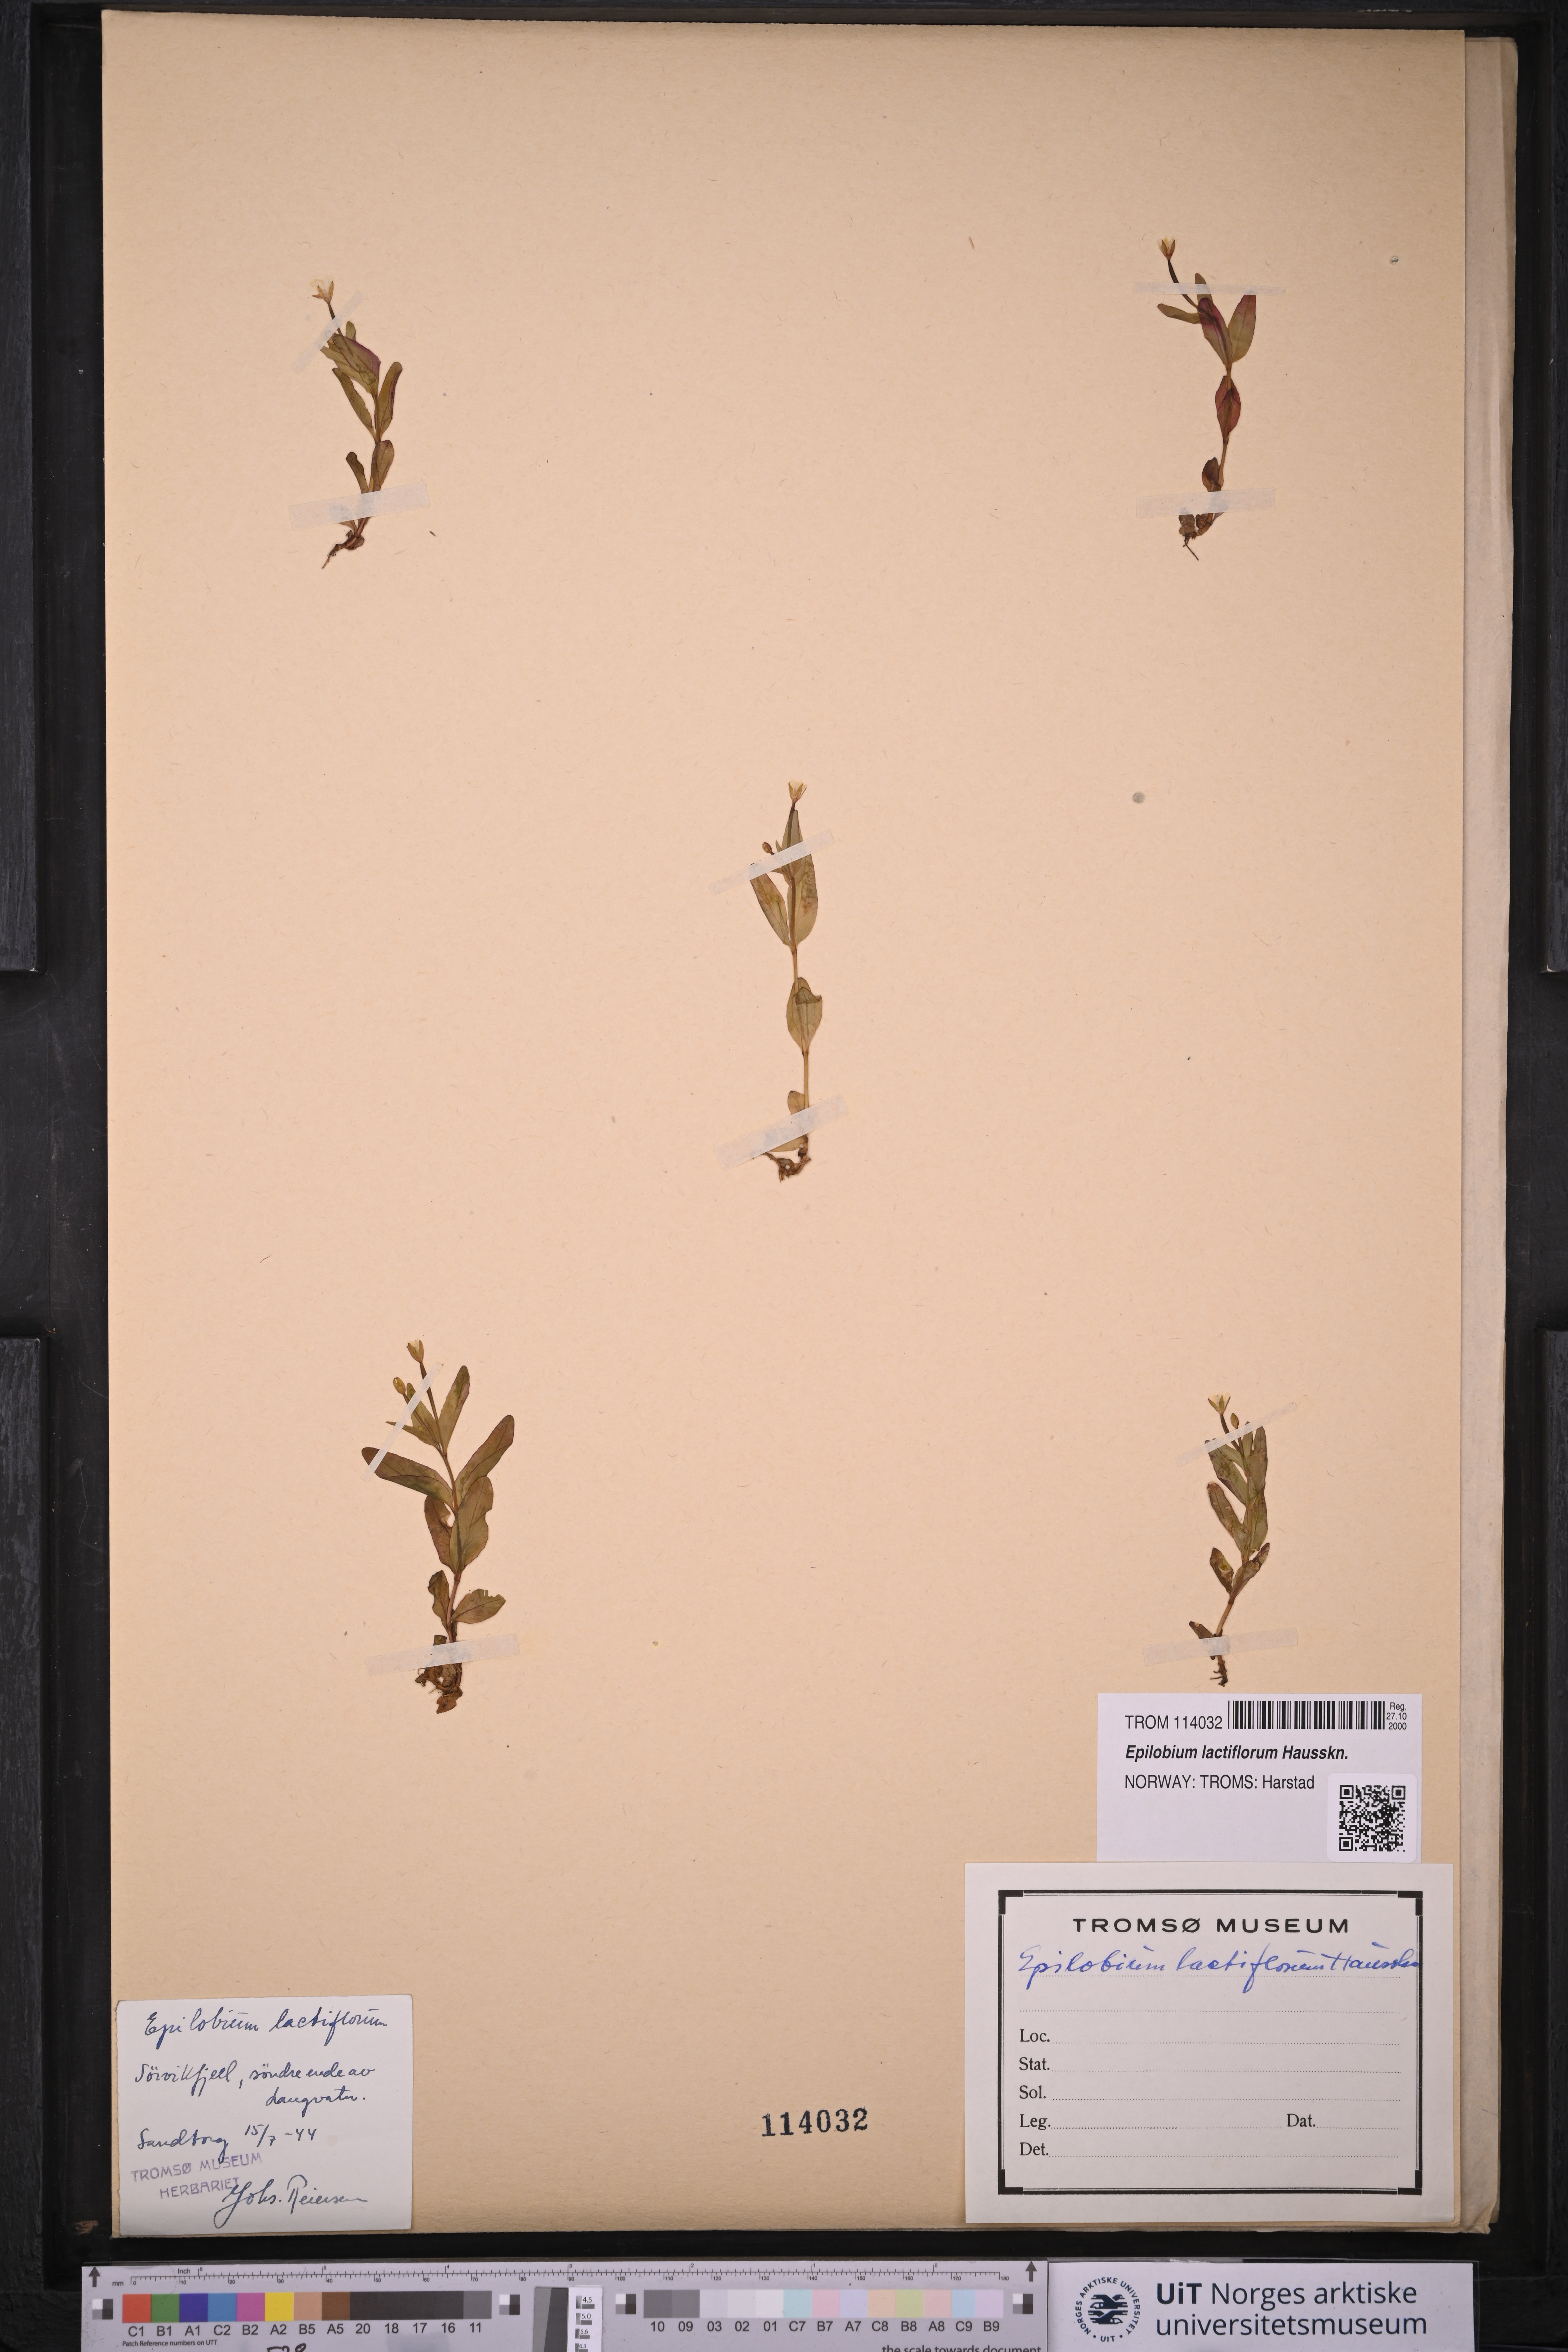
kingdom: Plantae
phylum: Tracheophyta
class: Magnoliopsida
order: Myrtales
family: Onagraceae
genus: Epilobium
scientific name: Epilobium lactiflorum
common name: Milkflower willowherb
